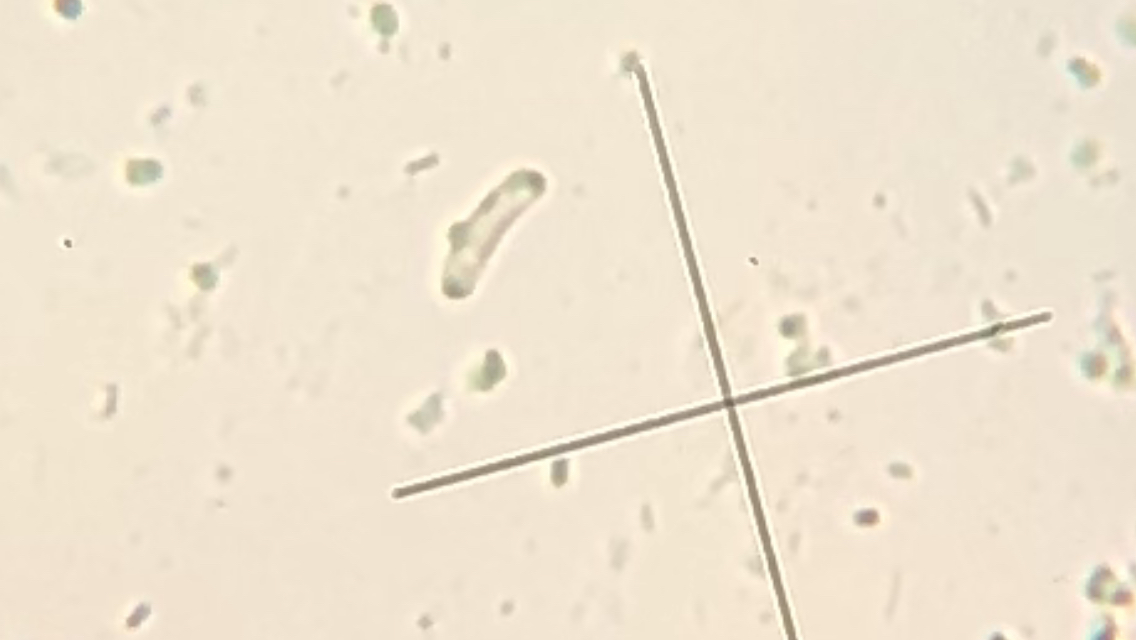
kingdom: Fungi
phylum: Ascomycota
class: Sordariomycetes
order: Xylariales
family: Diatrypaceae
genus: Diatrype
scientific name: Diatrype bullata
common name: pile-kulskorpe
